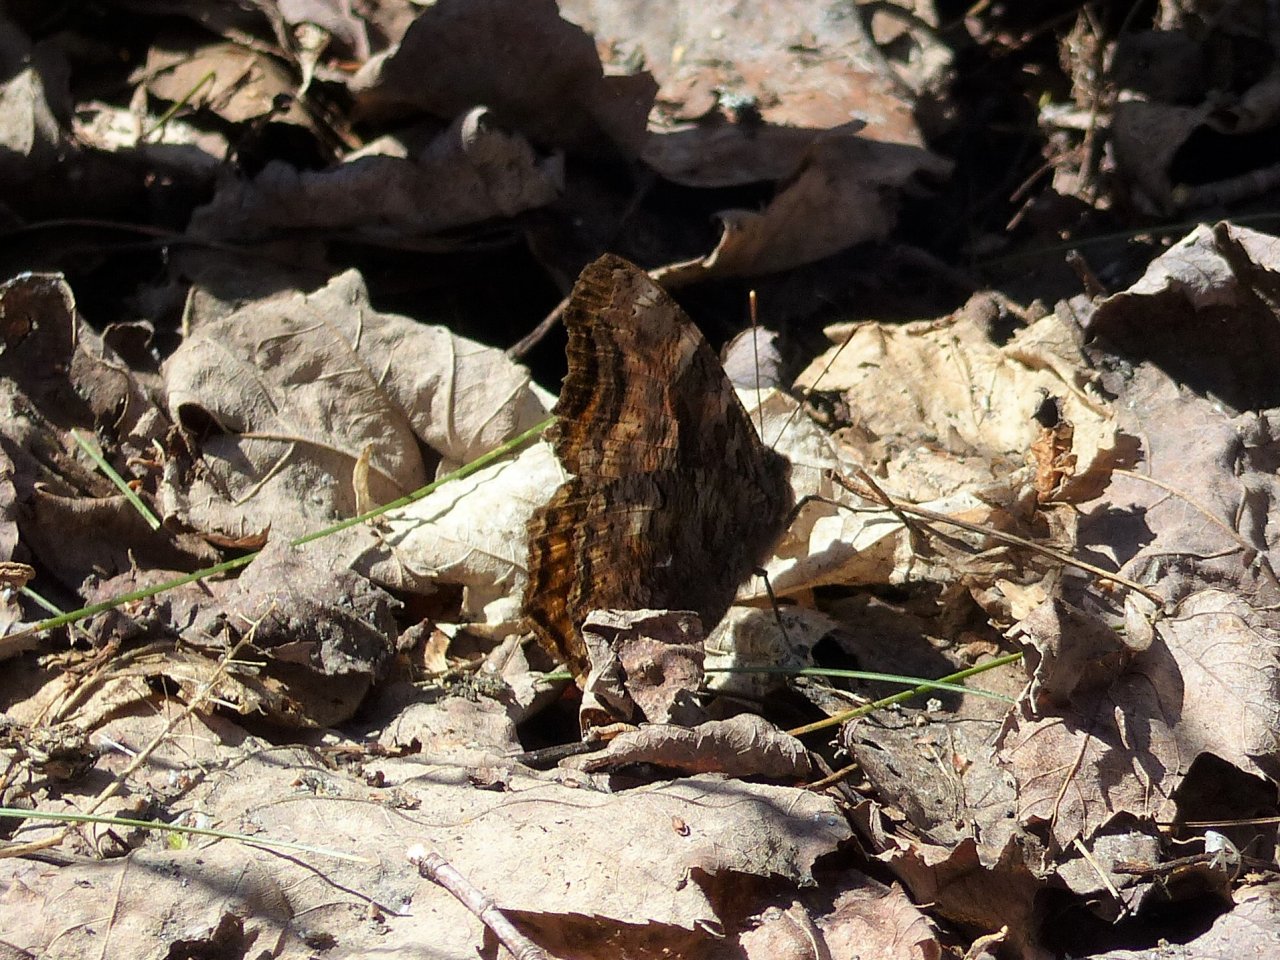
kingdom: Animalia
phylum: Arthropoda
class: Insecta
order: Lepidoptera
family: Nymphalidae
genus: Polygonia
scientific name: Polygonia vaualbum
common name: Compton Tortoiseshell
